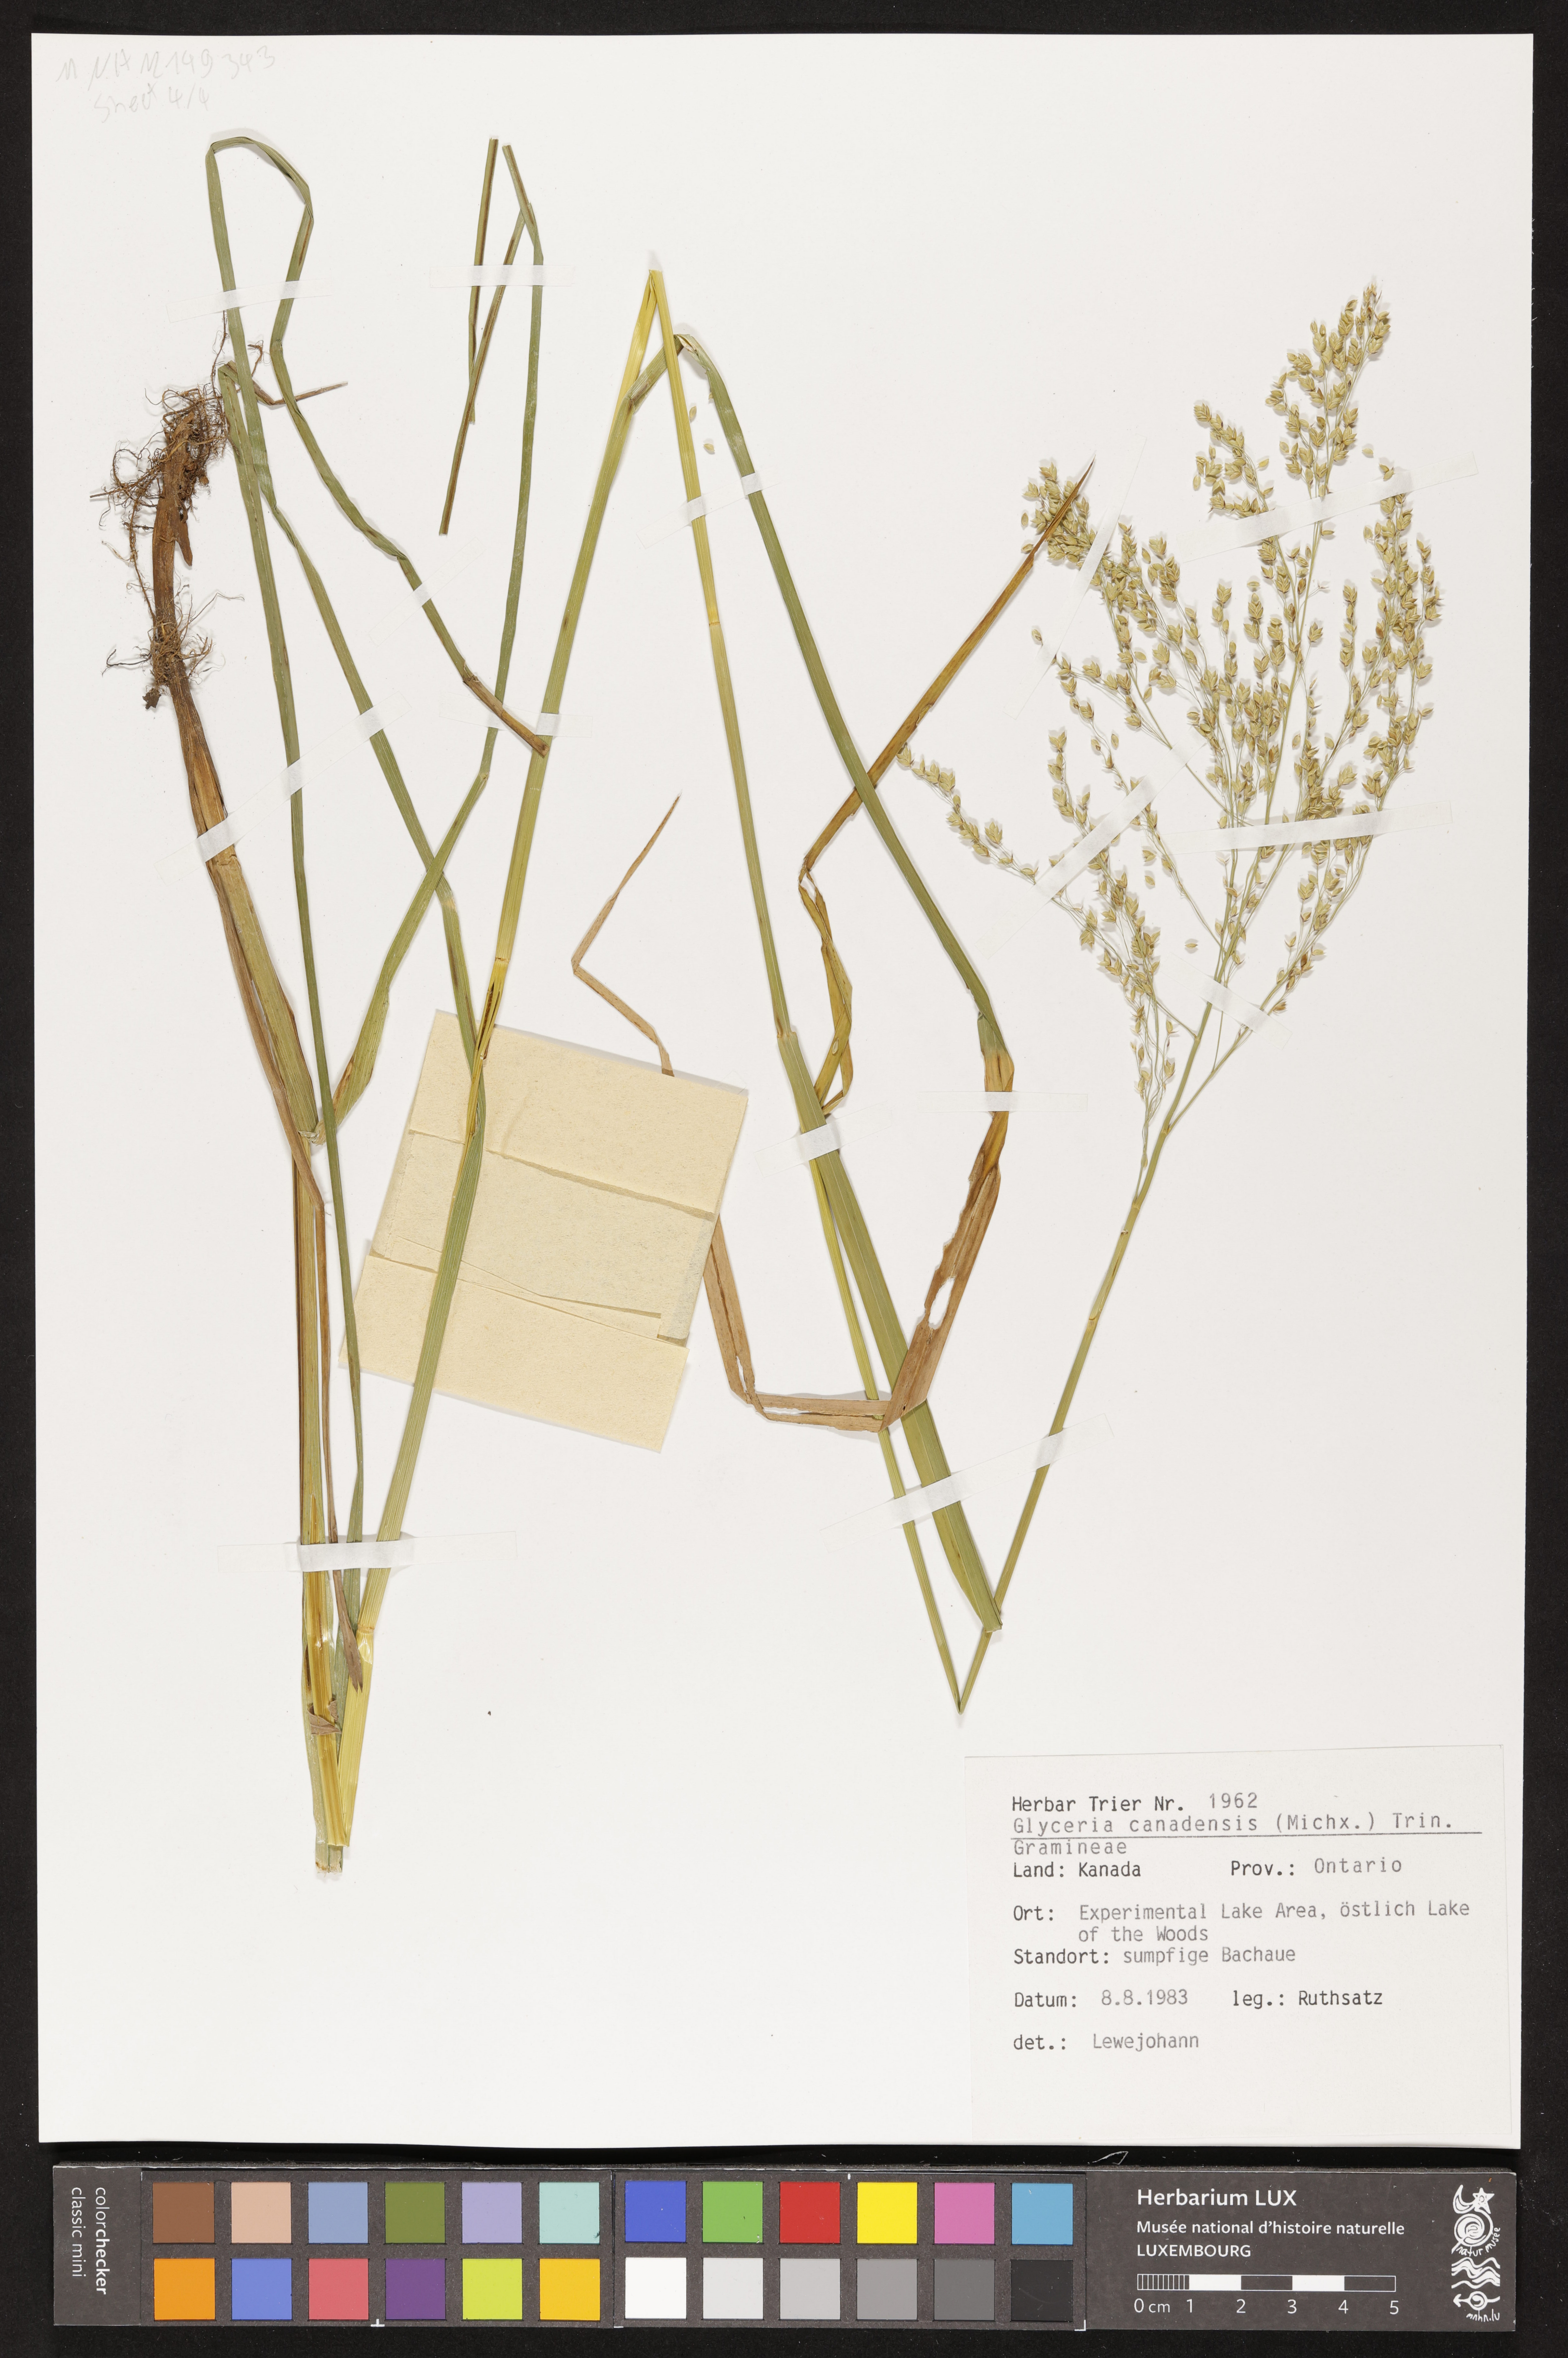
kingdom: Plantae
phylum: Tracheophyta
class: Liliopsida
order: Poales
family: Poaceae
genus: Glyceria
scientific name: Glyceria canadensis
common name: Canada mannagrass
